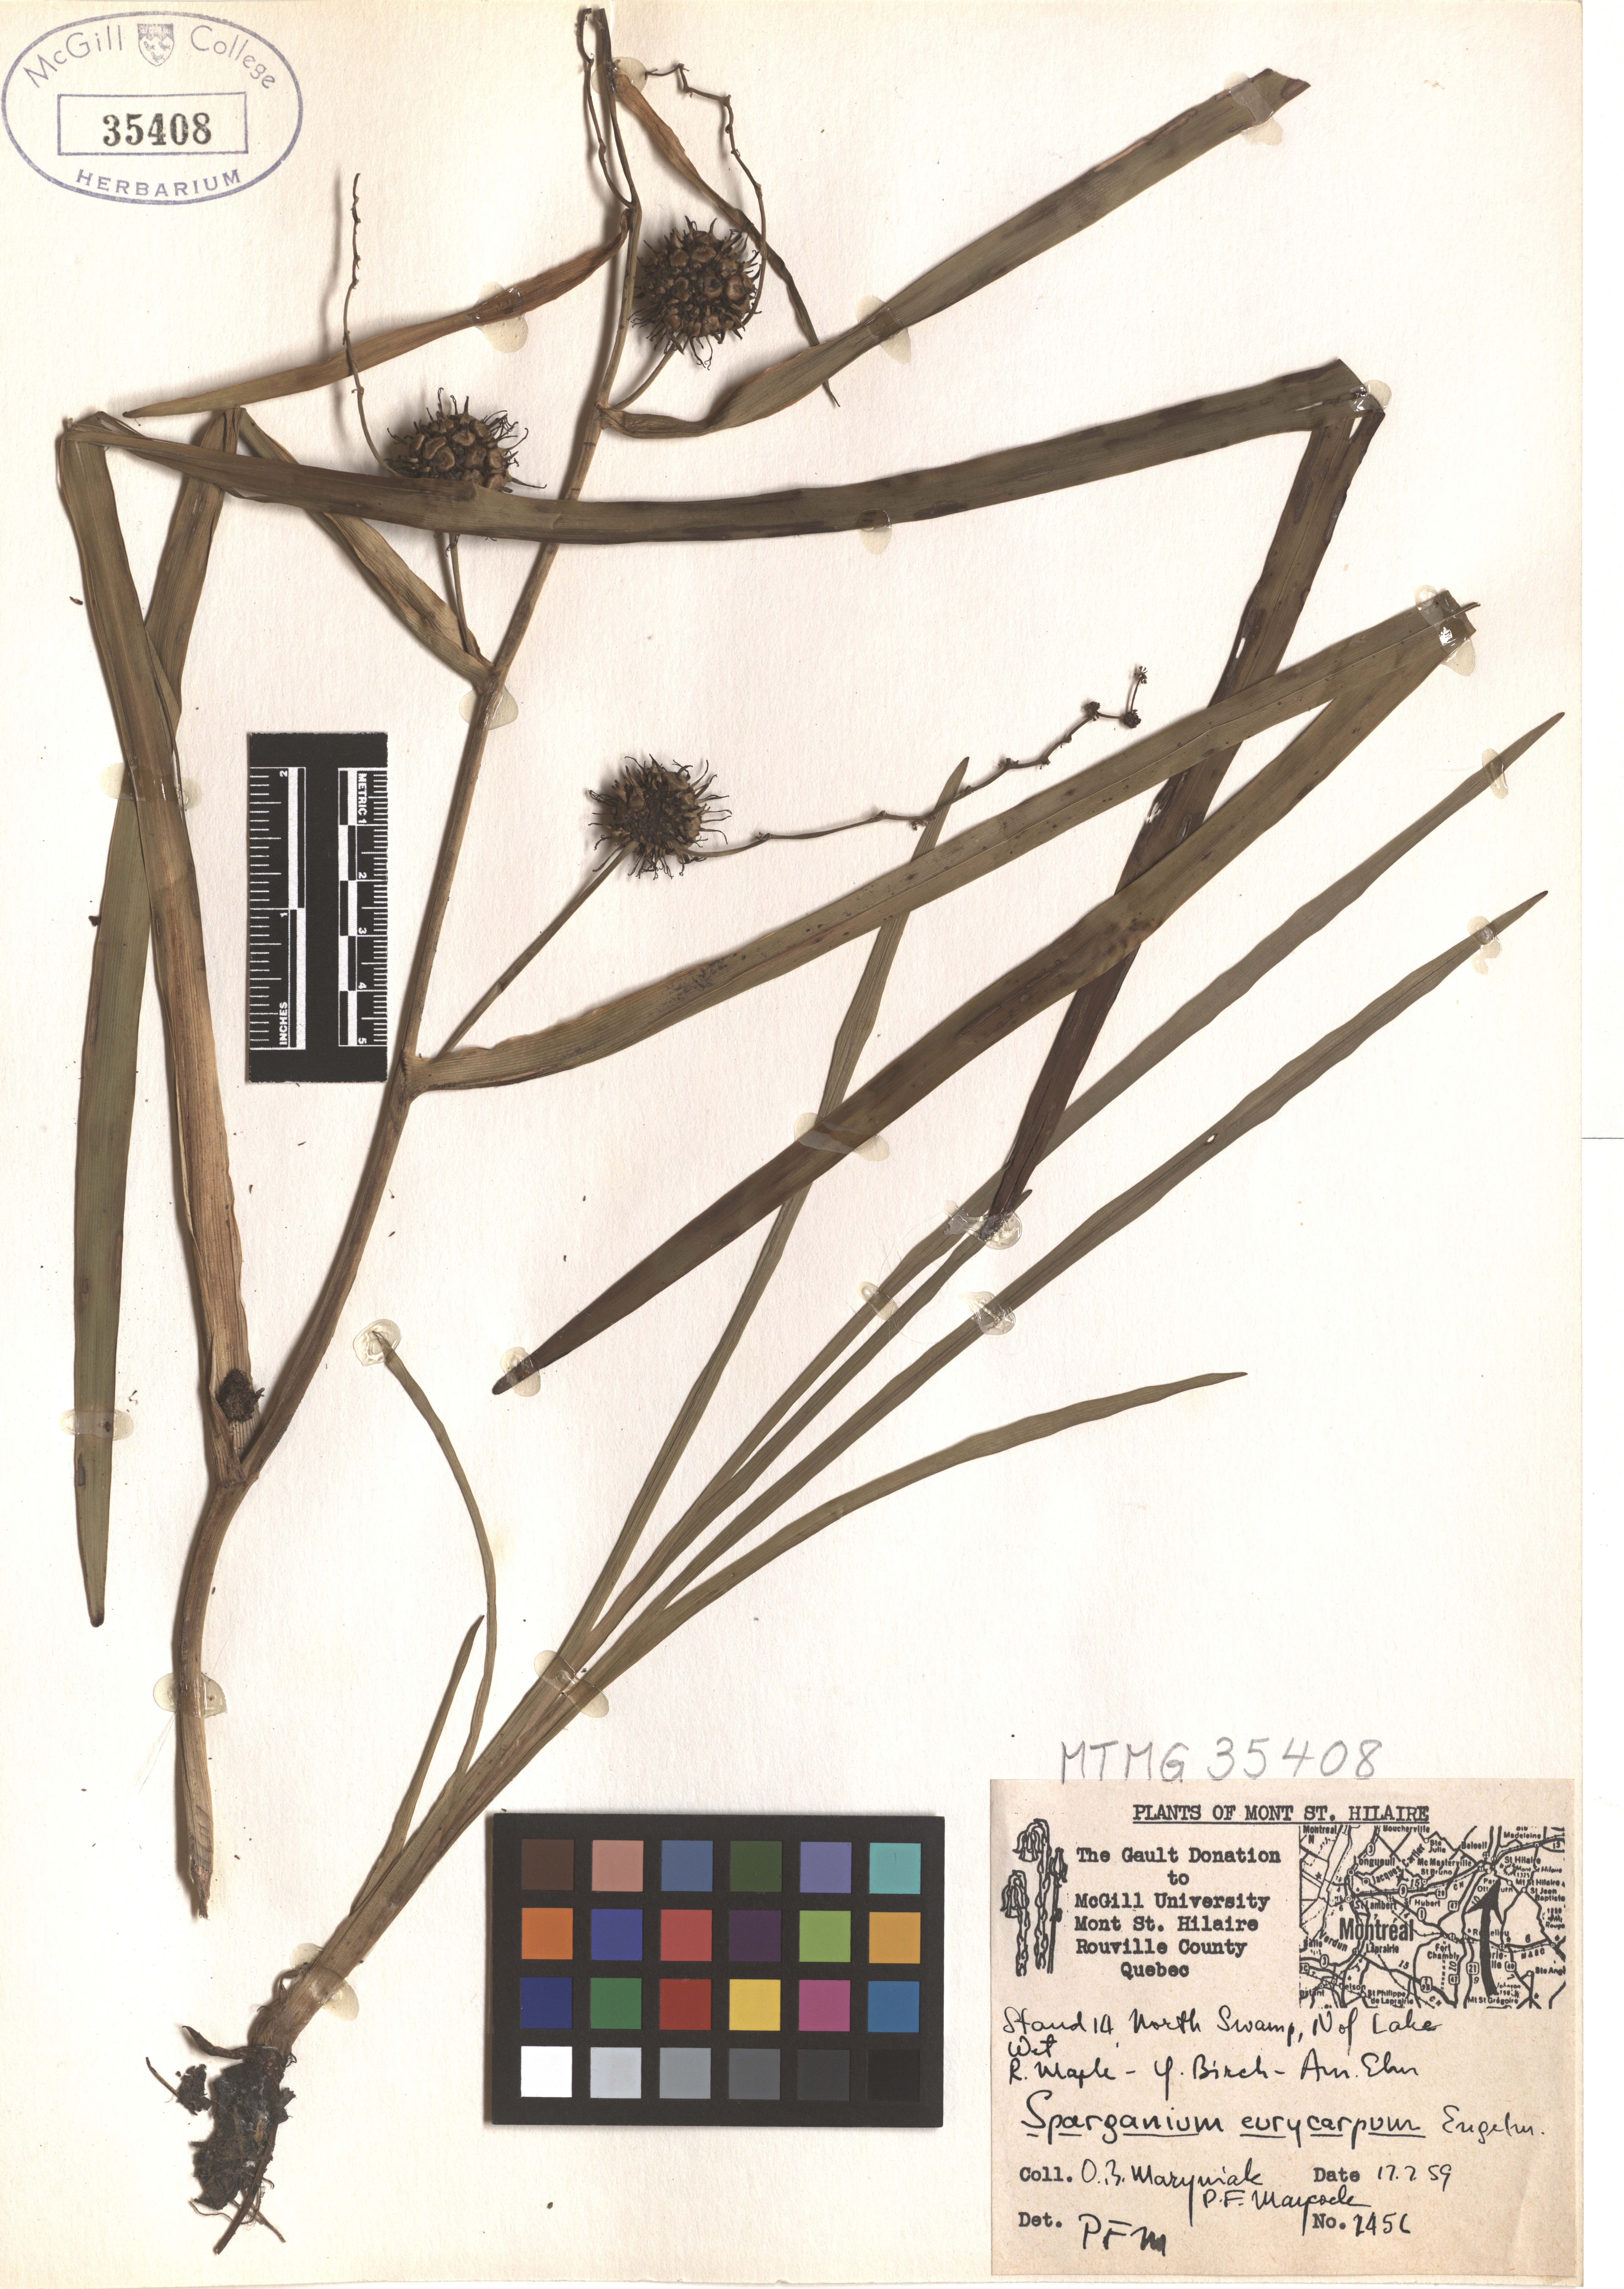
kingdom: Plantae
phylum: Tracheophyta
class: Liliopsida
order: Poales
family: Typhaceae
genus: Sparganium
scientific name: Sparganium eurycarpum
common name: Broad-fruited burreed
